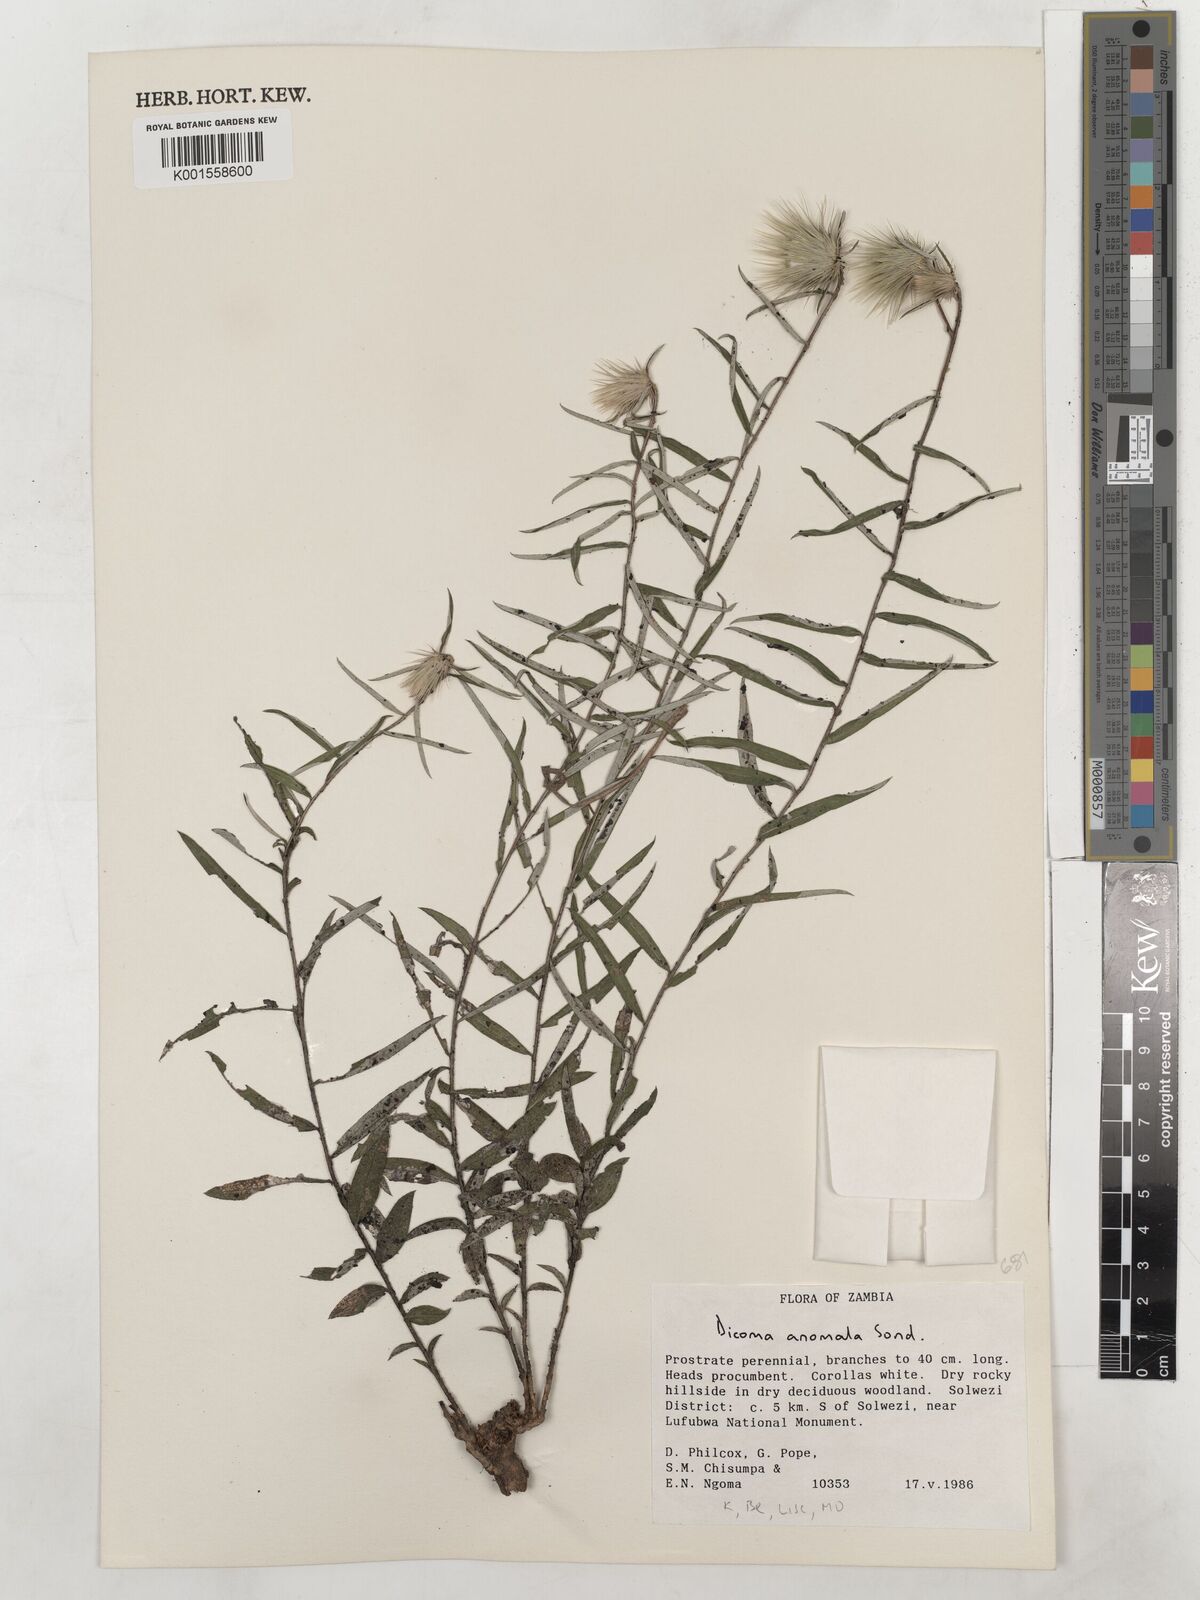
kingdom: Plantae
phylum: Tracheophyta
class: Magnoliopsida
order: Asterales
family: Asteraceae
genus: Dicoma
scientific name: Dicoma anomala
